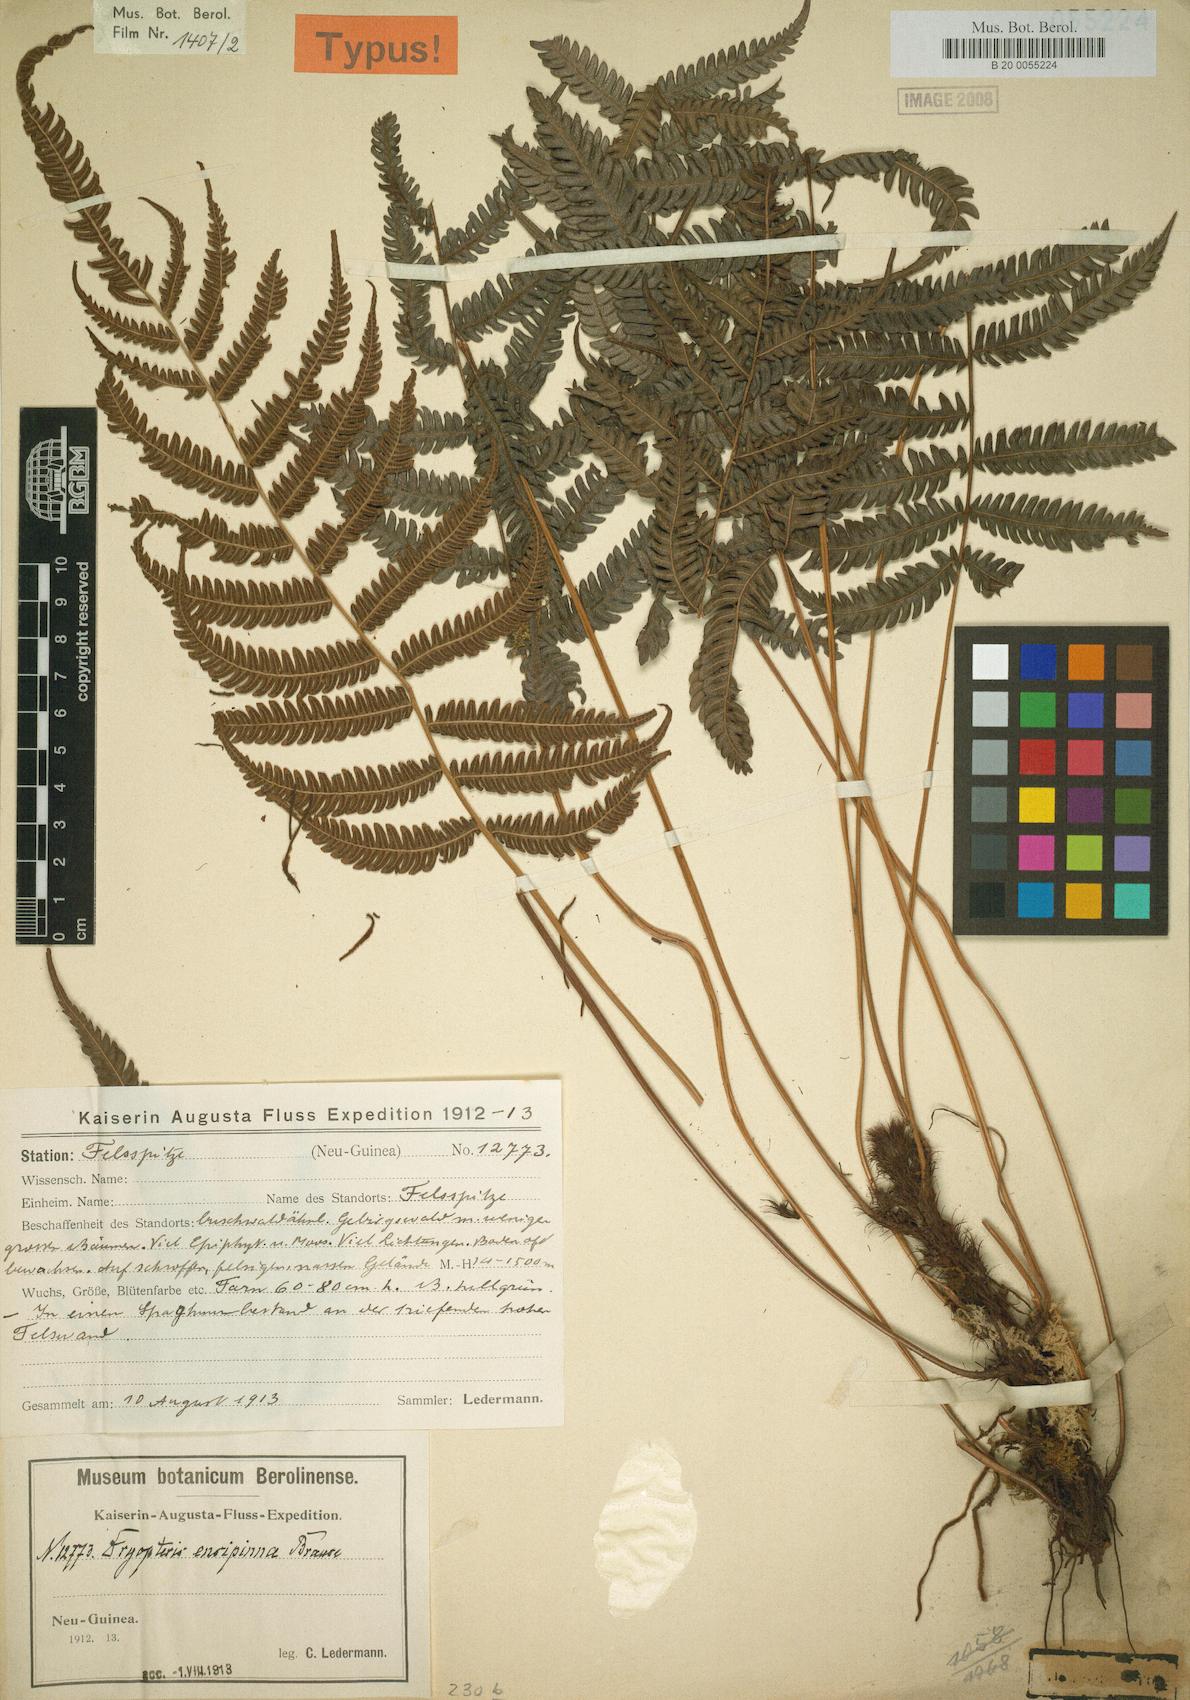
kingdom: Plantae
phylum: Tracheophyta
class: Polypodiopsida
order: Polypodiales
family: Thelypteridaceae
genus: Plesioneuron
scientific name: Plesioneuron savaiense
